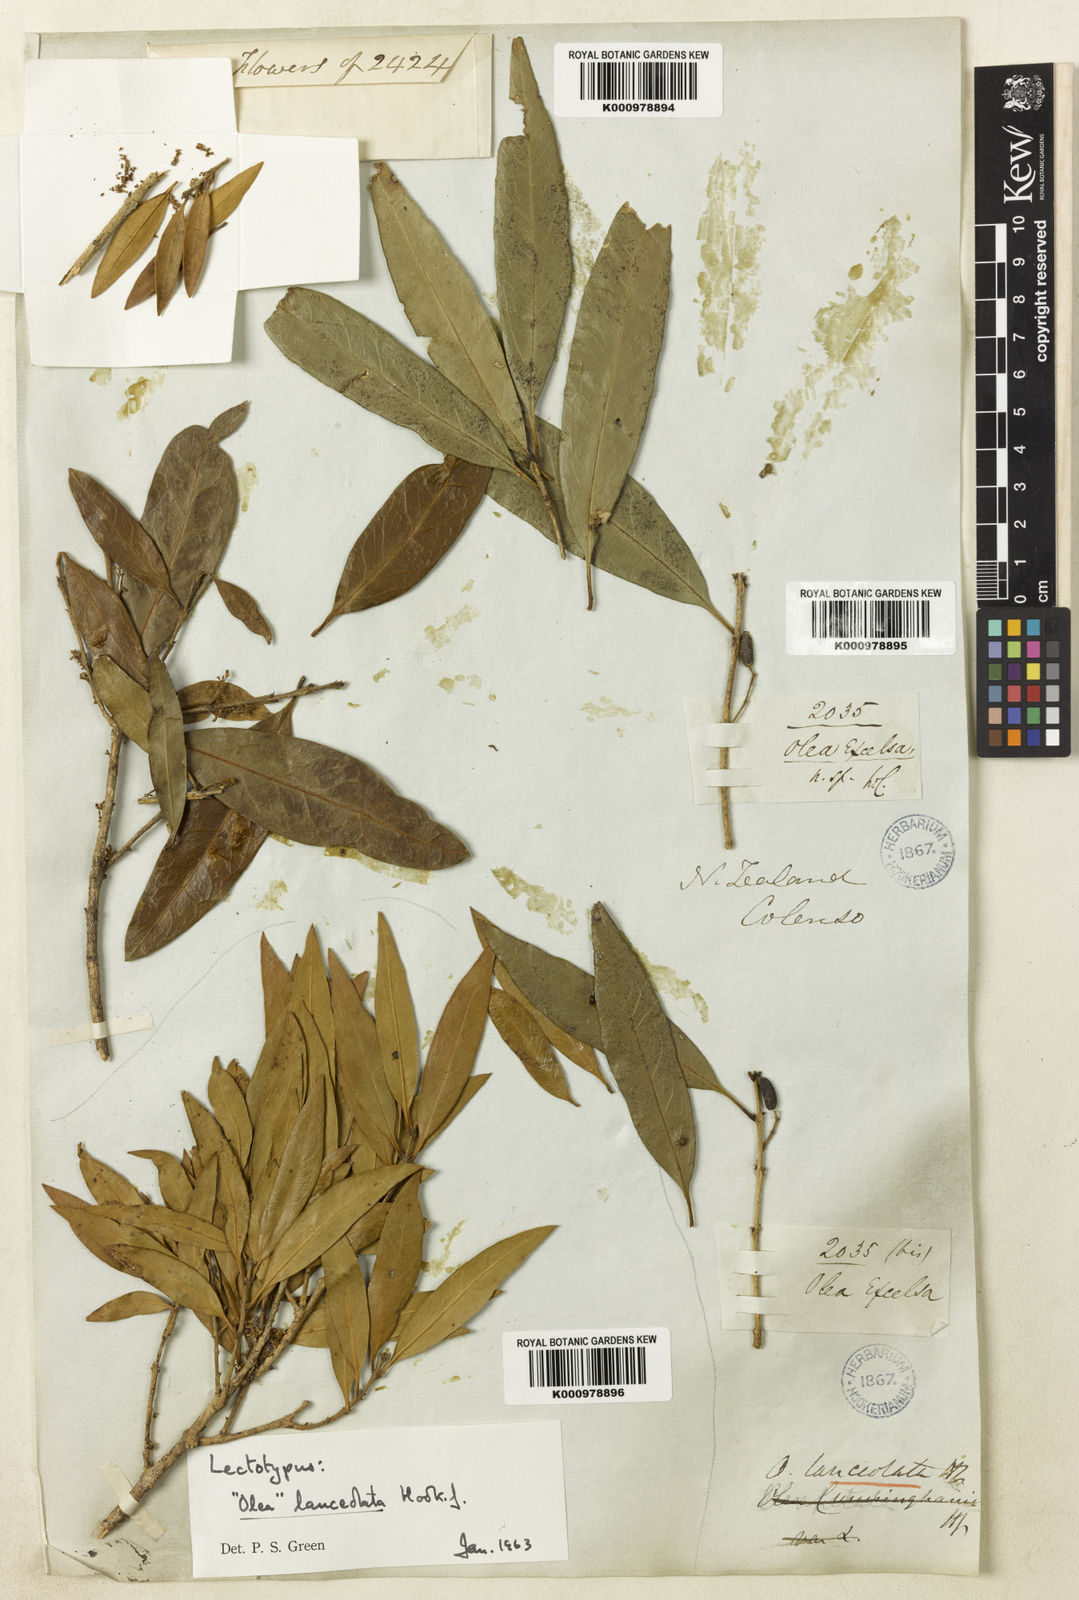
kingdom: Plantae
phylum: Tracheophyta
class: Magnoliopsida
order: Lamiales
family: Oleaceae
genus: Nestegis
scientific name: Nestegis lanceolata
